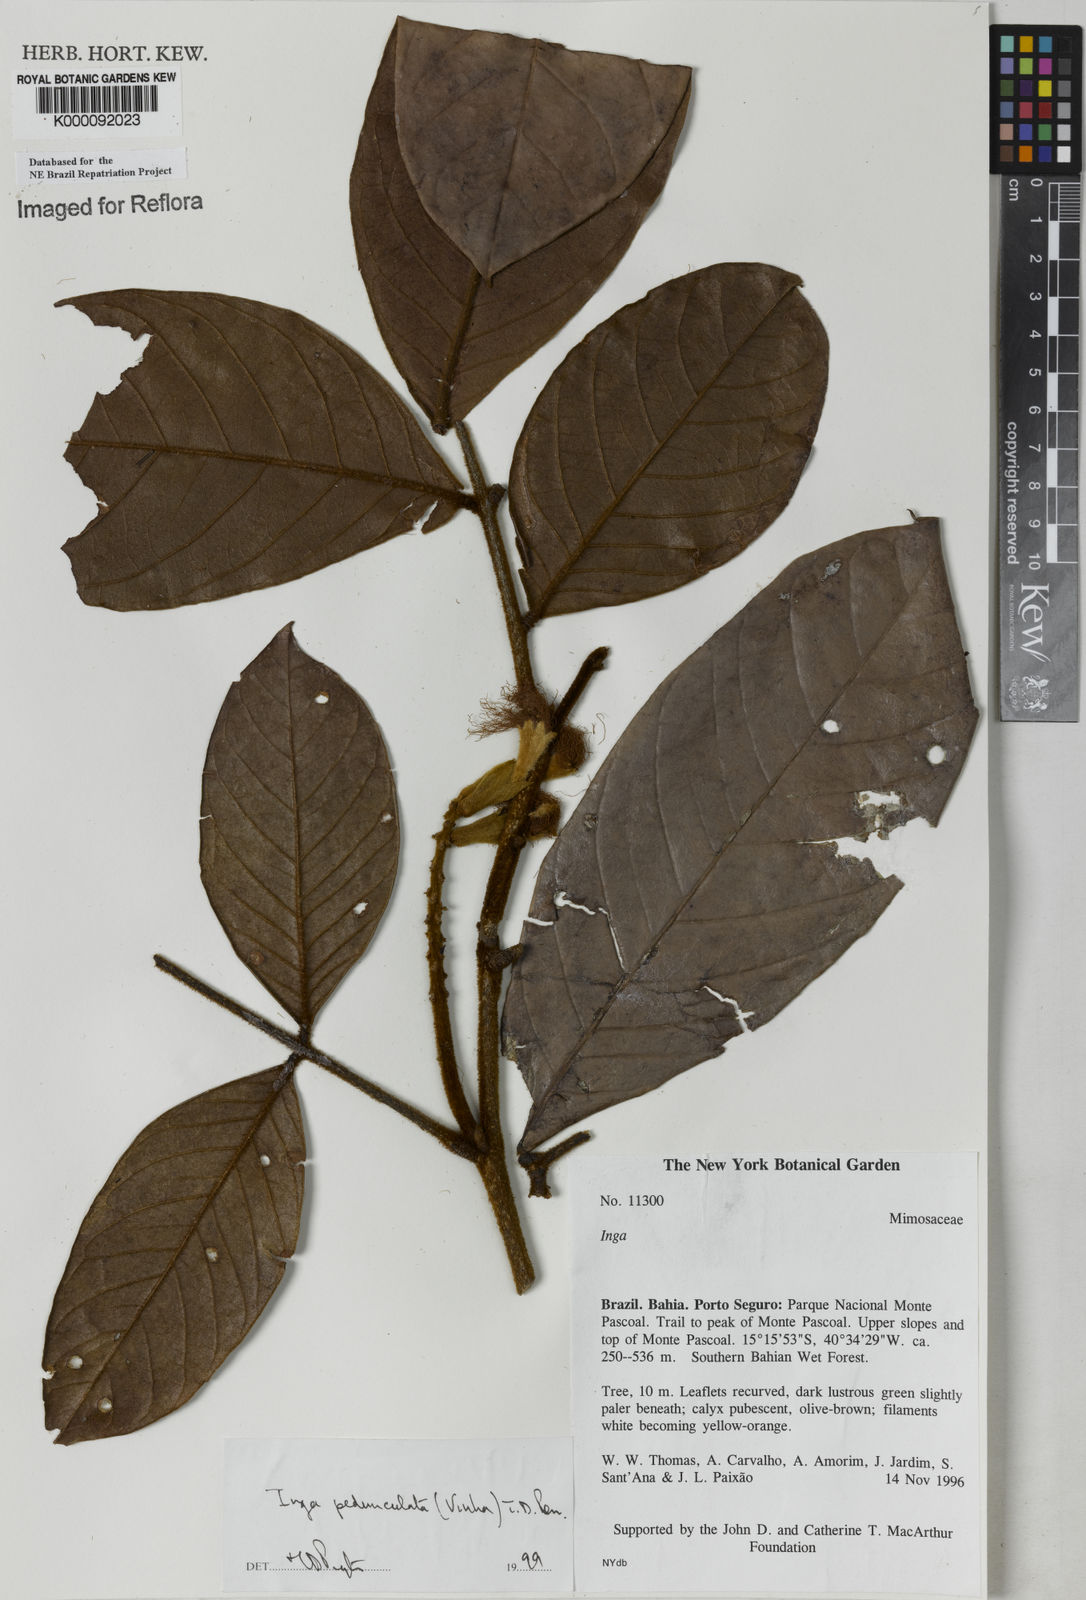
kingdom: Plantae
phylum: Tracheophyta
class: Magnoliopsida
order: Fabales
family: Fabaceae
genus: Inga
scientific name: Inga pedunculata
